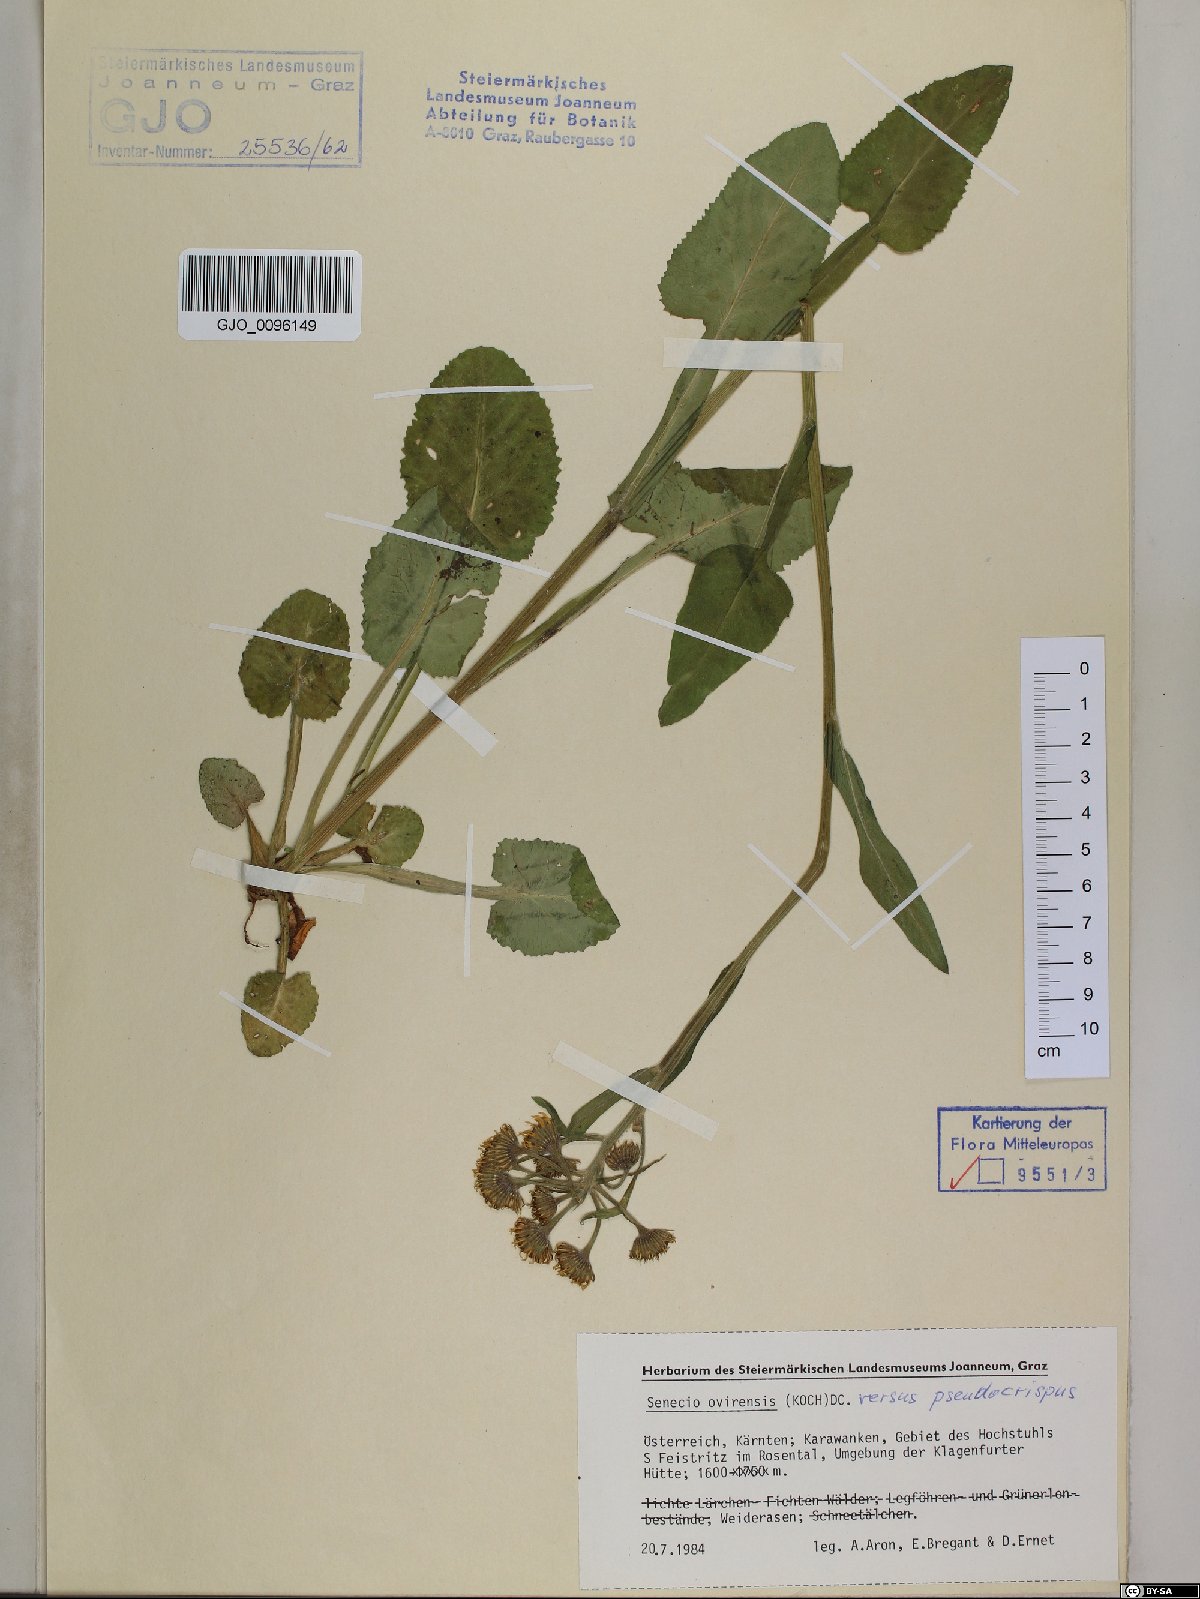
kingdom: Plantae
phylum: Tracheophyta
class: Magnoliopsida
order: Asterales
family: Asteraceae
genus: Tephroseris
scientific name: Tephroseris longifolia
